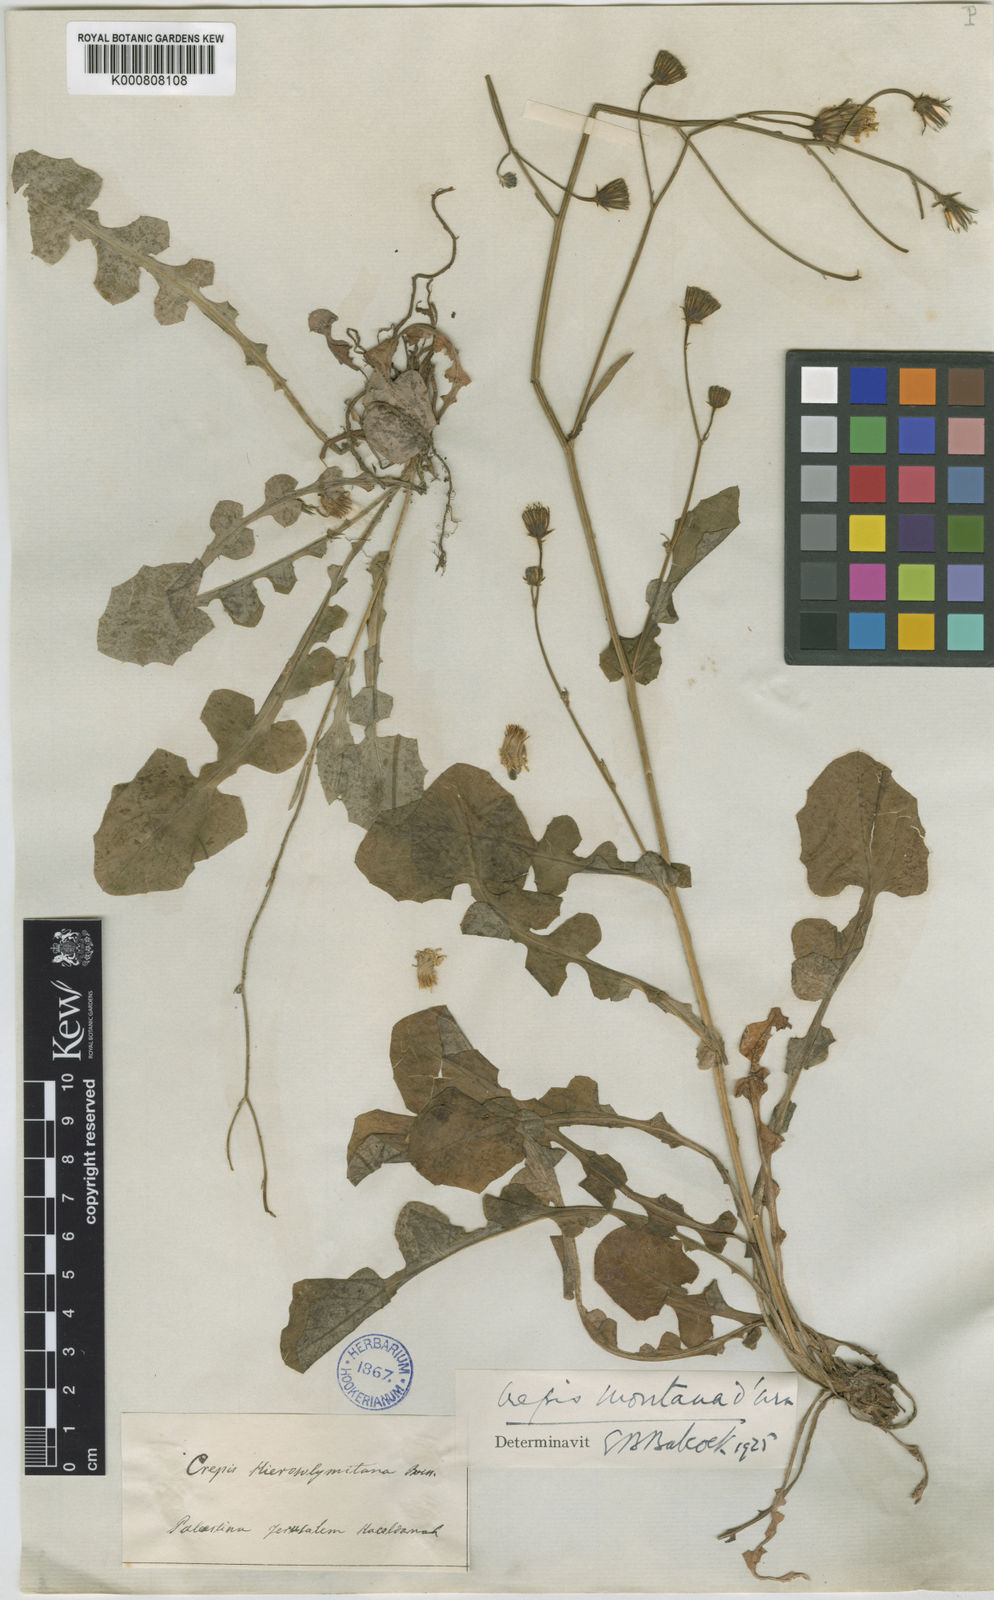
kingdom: Plantae
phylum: Tracheophyta
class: Magnoliopsida
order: Asterales
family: Asteraceae
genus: Crepis
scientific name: Crepis hierosolymitana
